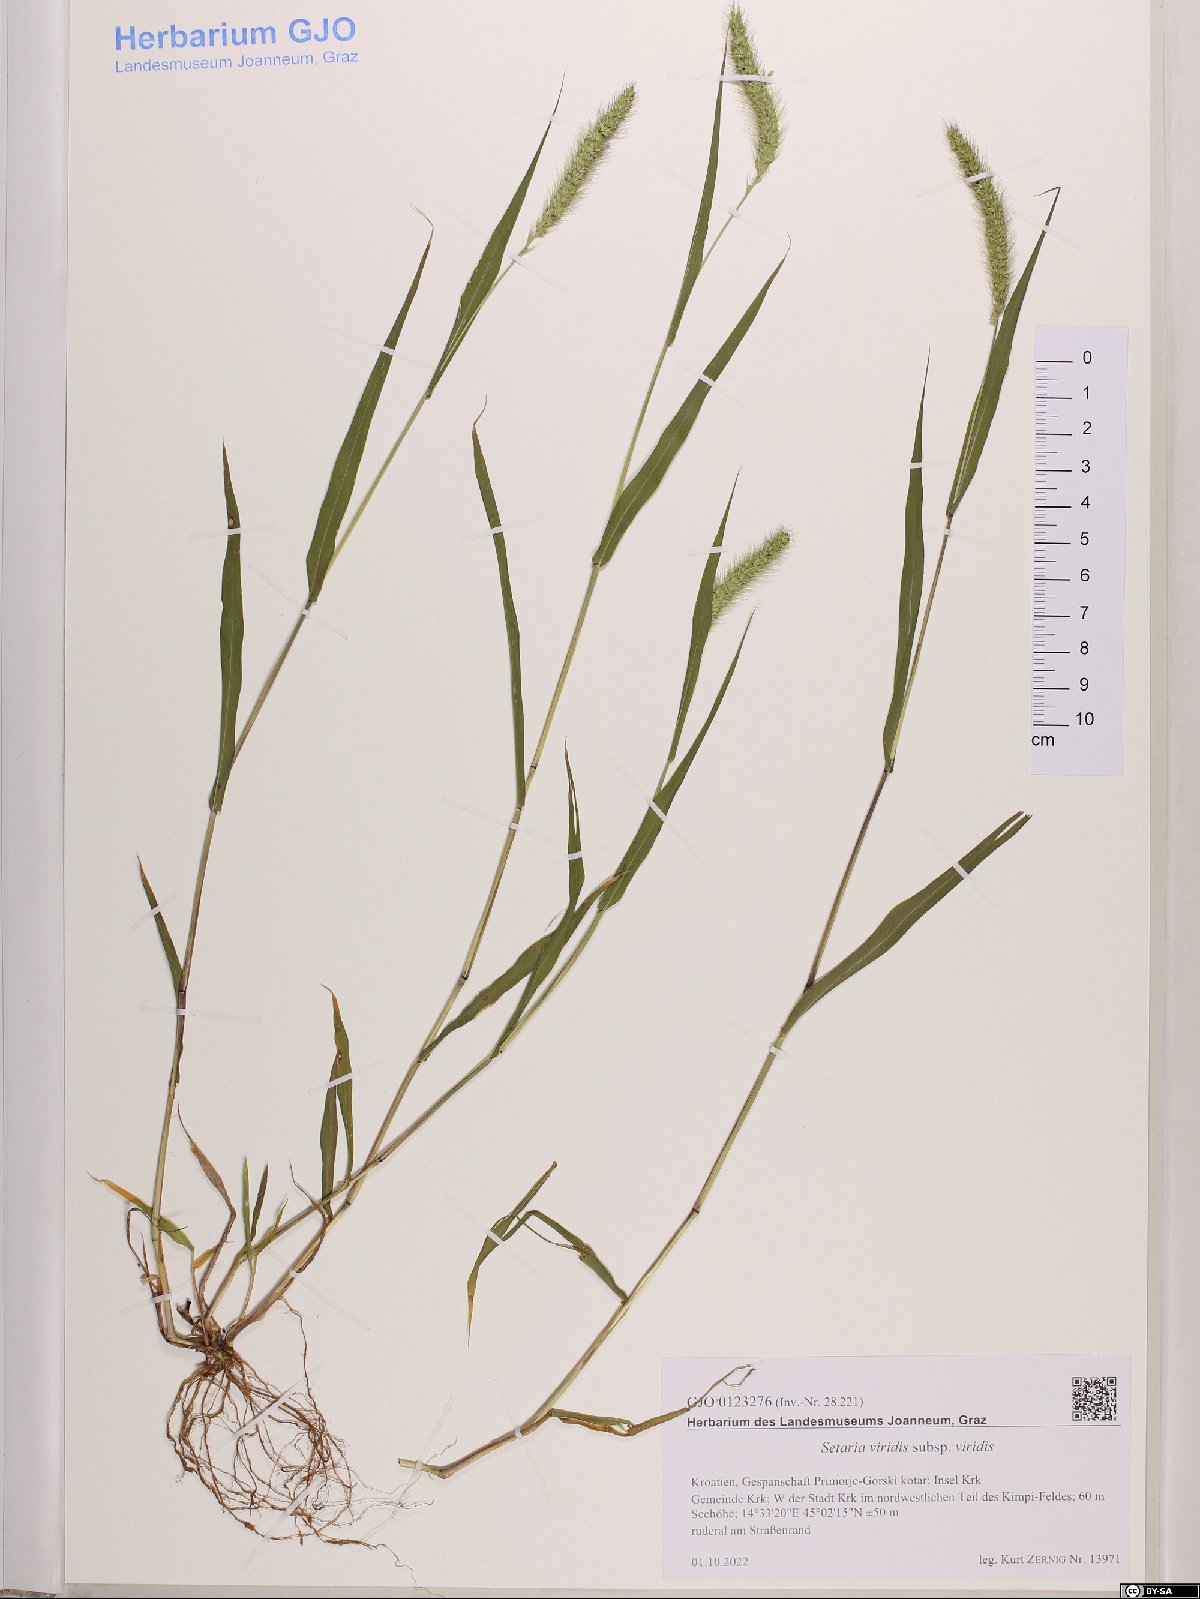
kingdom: Plantae
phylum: Tracheophyta
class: Liliopsida
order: Poales
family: Poaceae
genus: Setaria
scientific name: Setaria viridis
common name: Green bristlegrass
